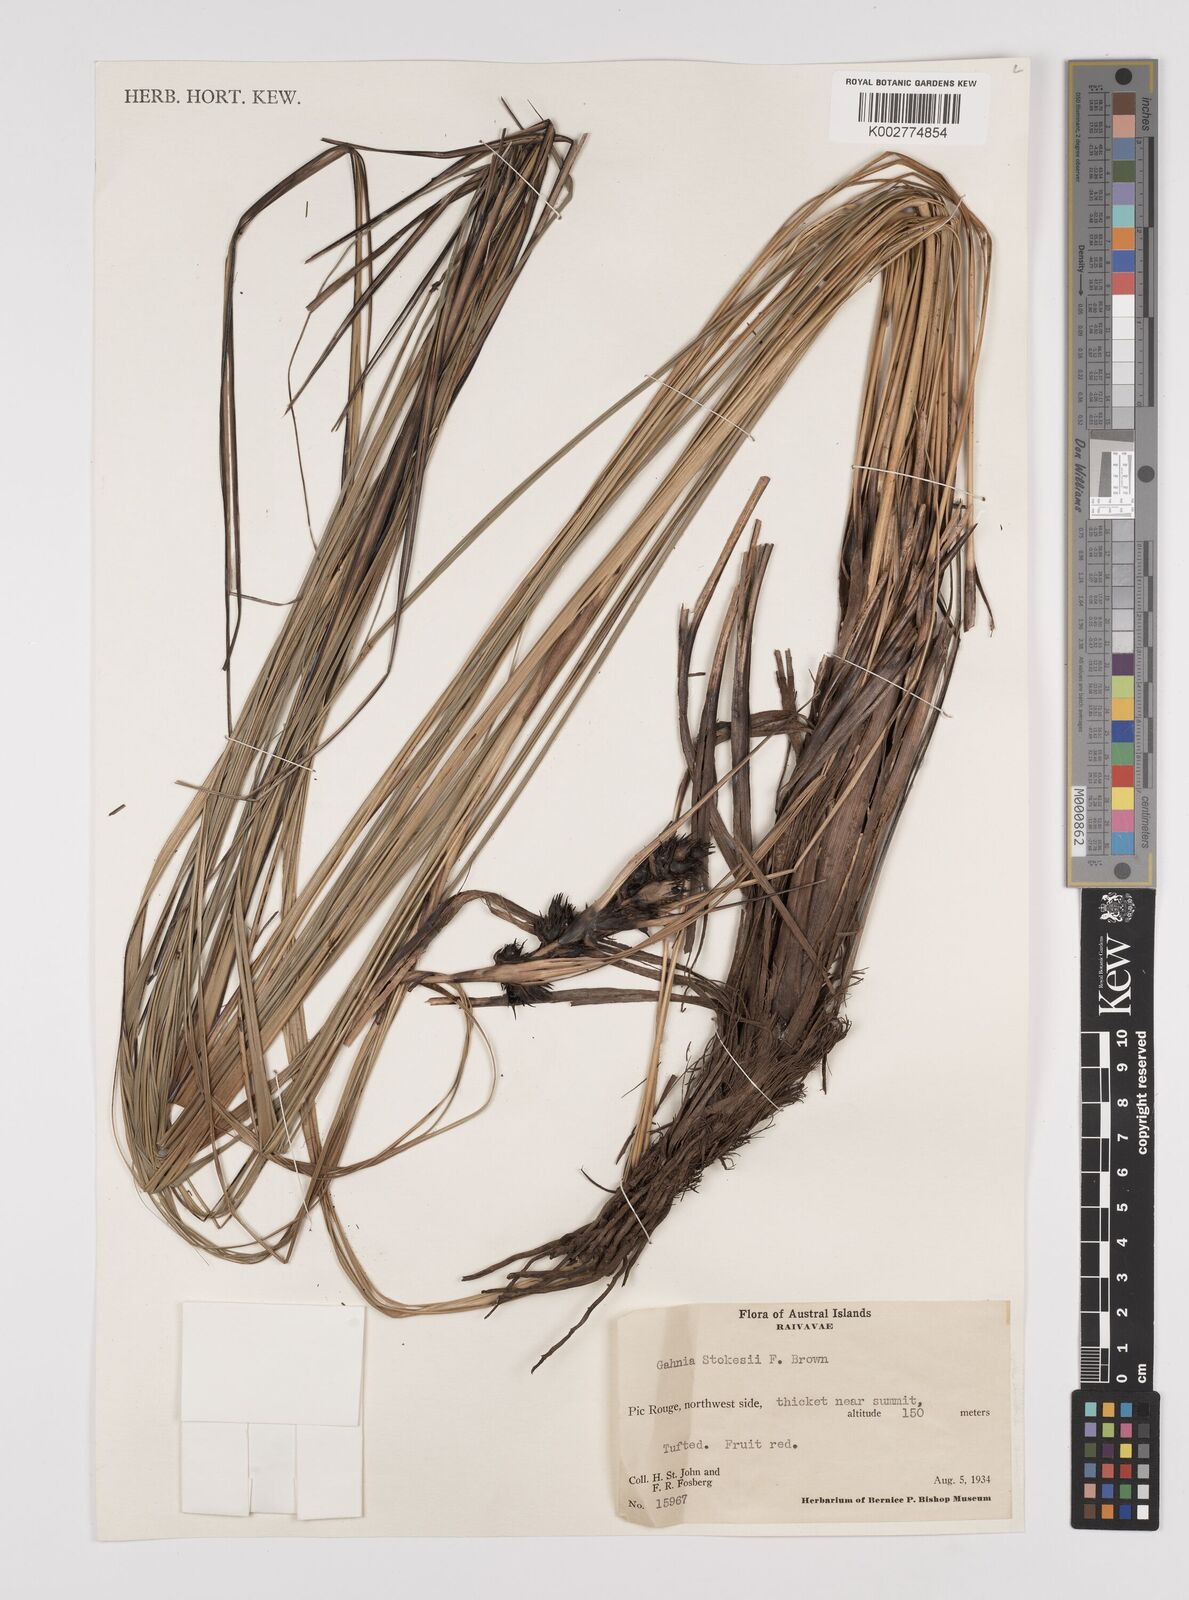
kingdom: Plantae
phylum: Tracheophyta
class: Liliopsida
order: Poales
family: Cyperaceae
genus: Gahnia
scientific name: Gahnia aspera
